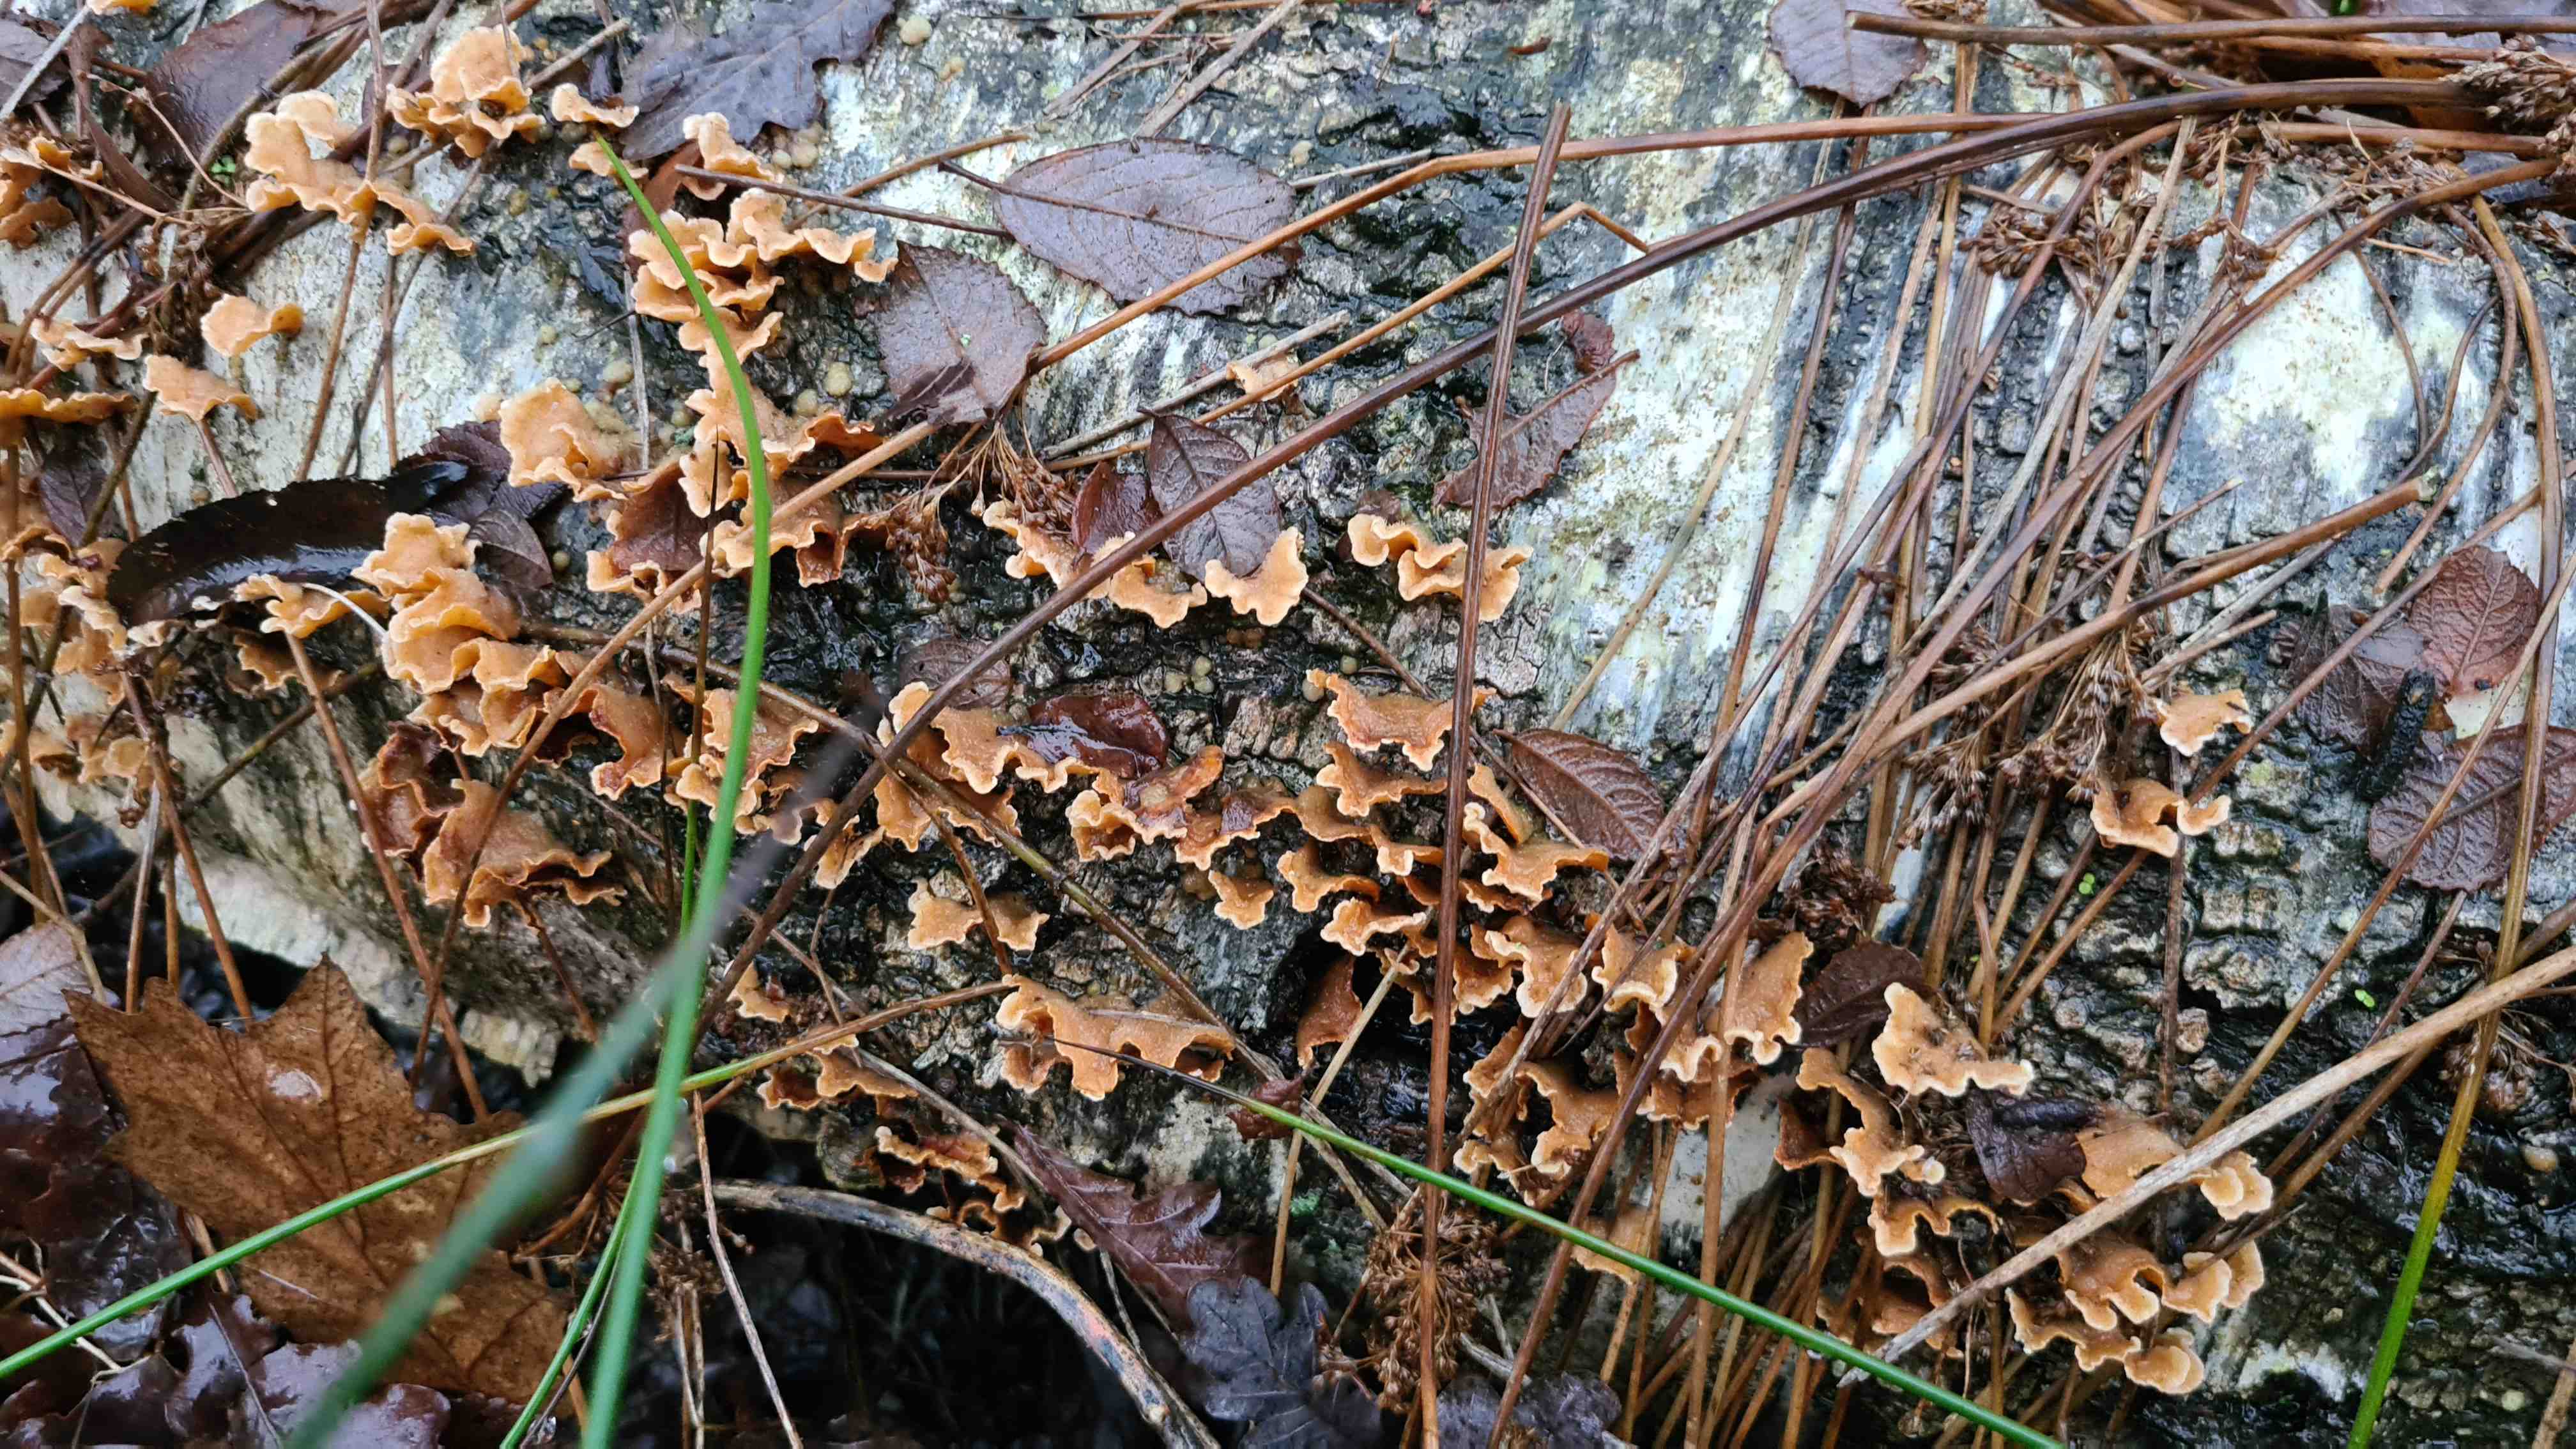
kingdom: Fungi
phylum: Basidiomycota
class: Agaricomycetes
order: Russulales
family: Stereaceae
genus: Stereum
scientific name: Stereum hirsutum
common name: håret lædersvamp
